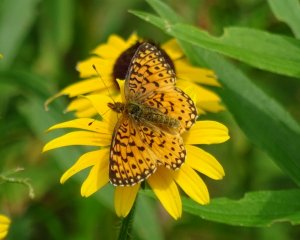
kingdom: Animalia
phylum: Arthropoda
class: Insecta
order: Lepidoptera
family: Nymphalidae
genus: Boloria
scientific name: Boloria selene
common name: Silver-bordered Fritillary
